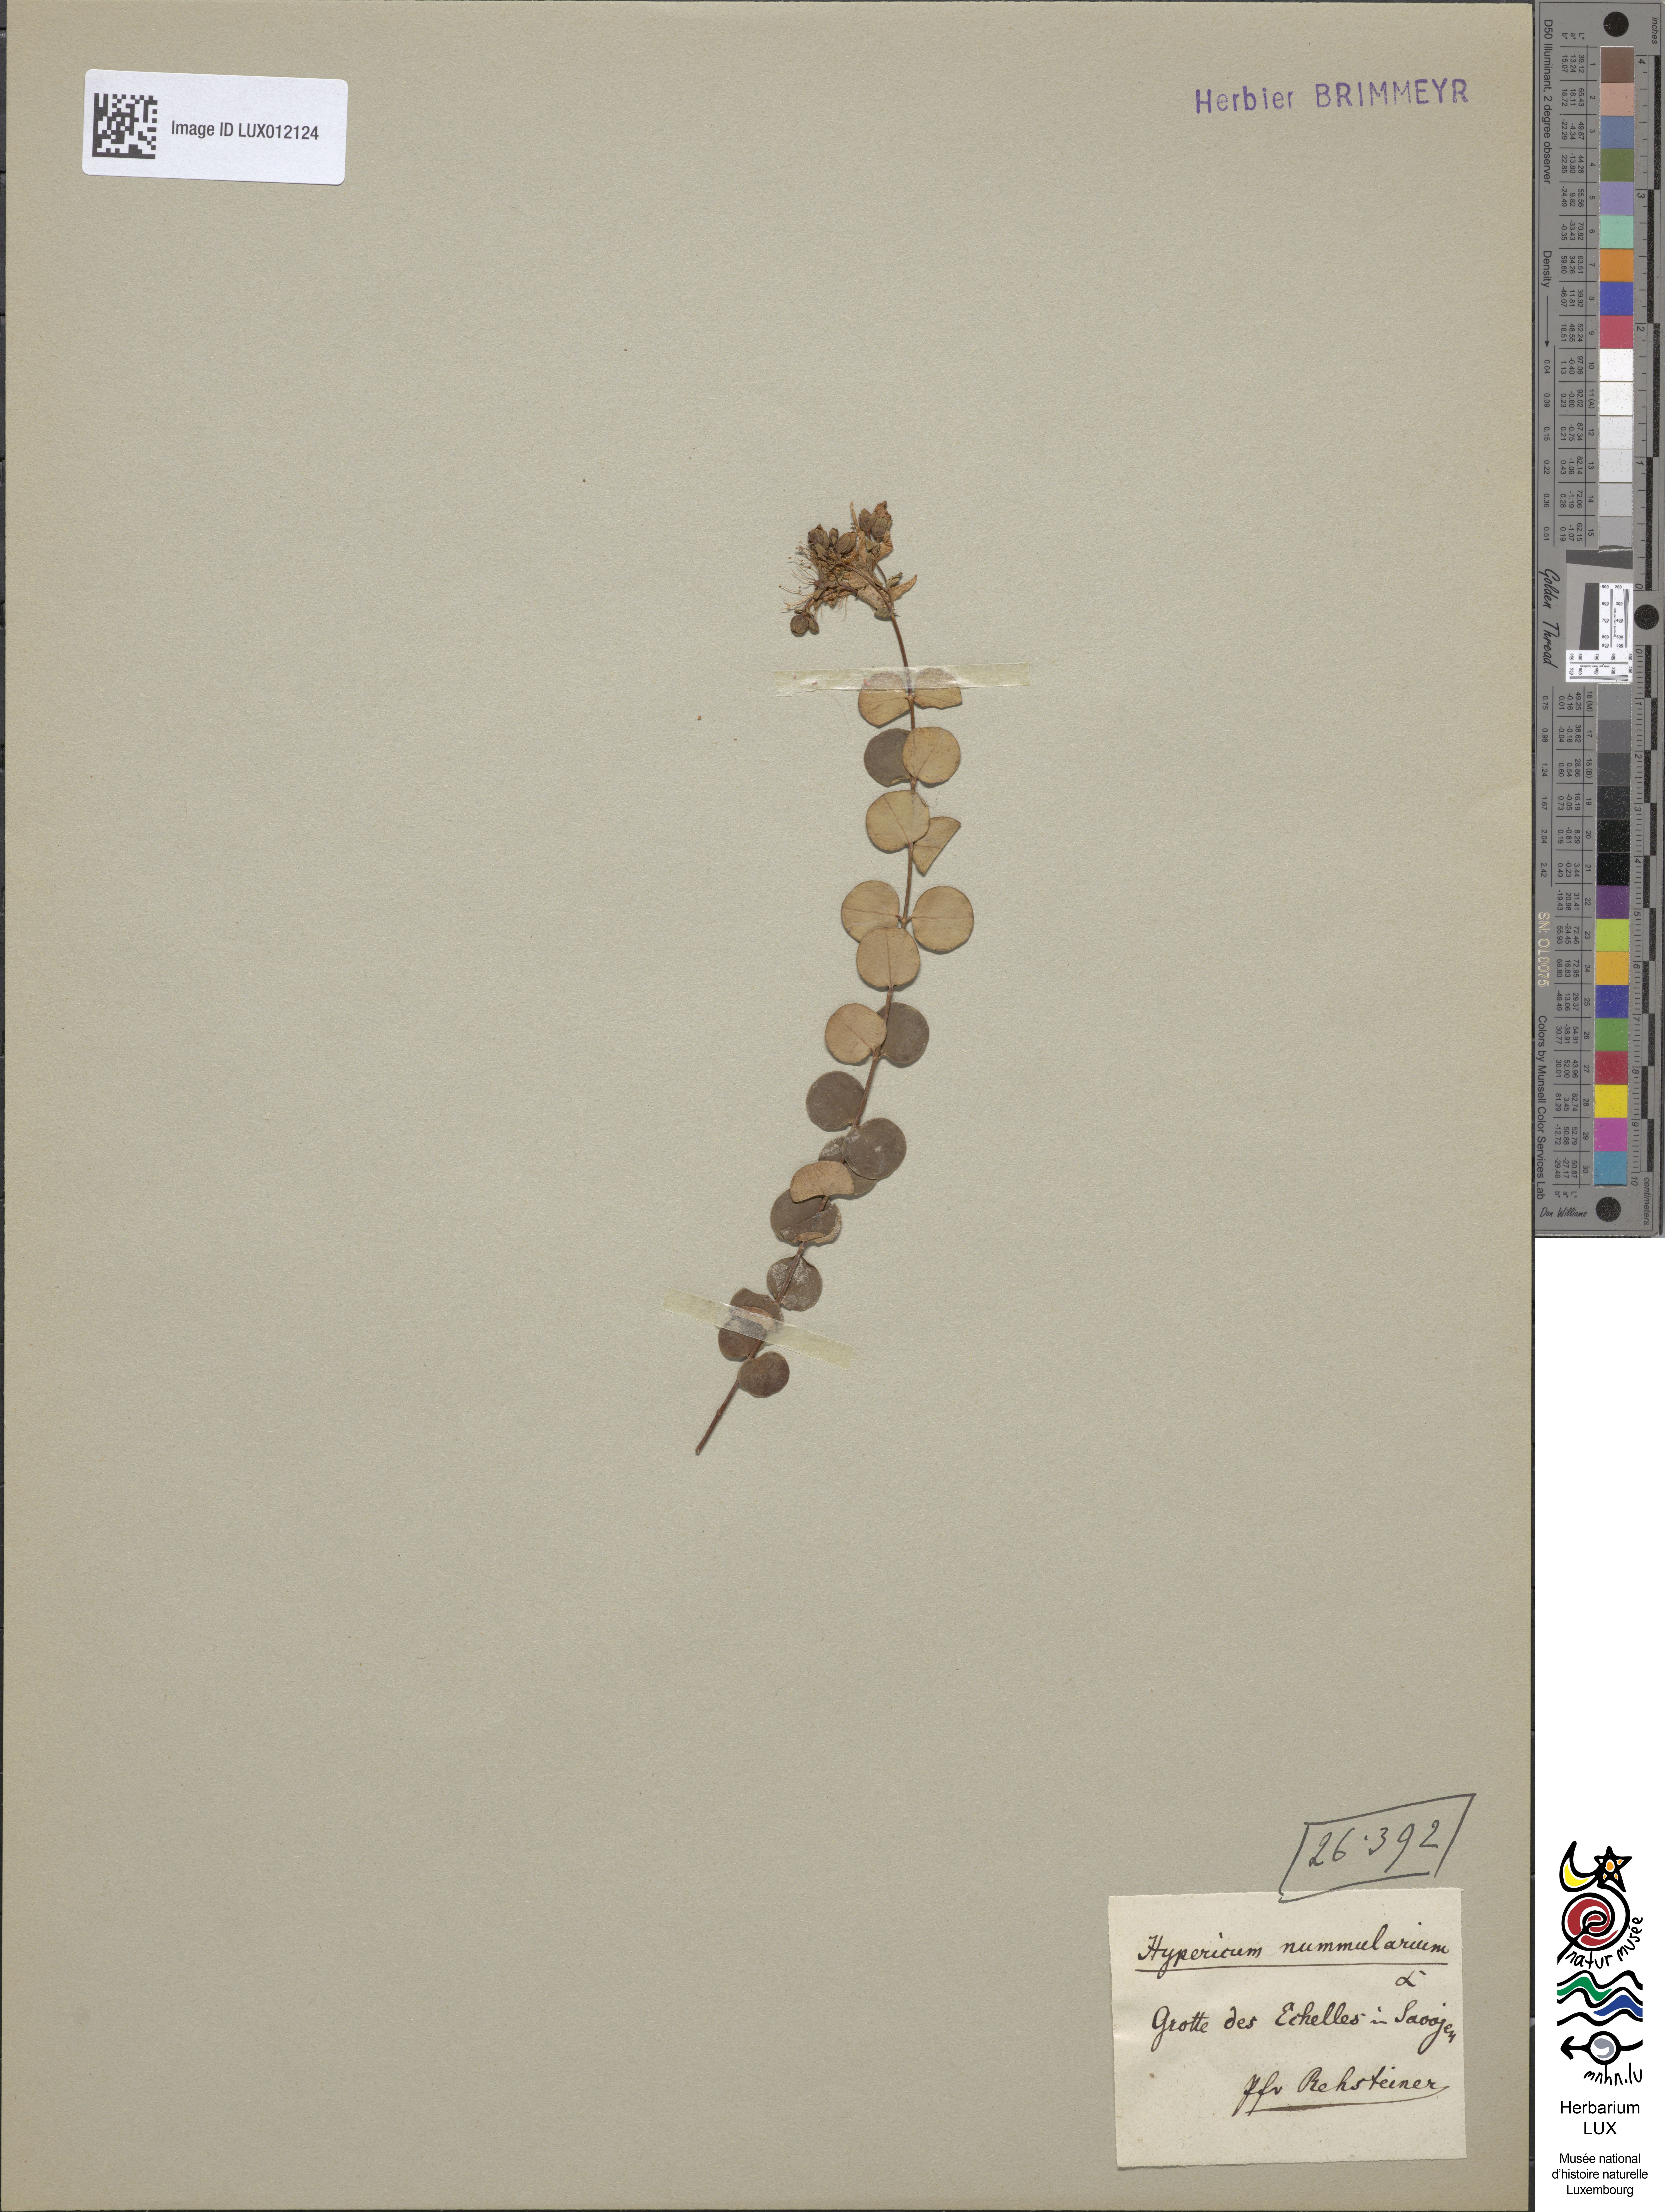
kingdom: Plantae
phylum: Tracheophyta
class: Magnoliopsida
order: Malpighiales
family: Hypericaceae
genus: Hypericum
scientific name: Hypericum nummularium
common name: Round-leaved st john's-wort
